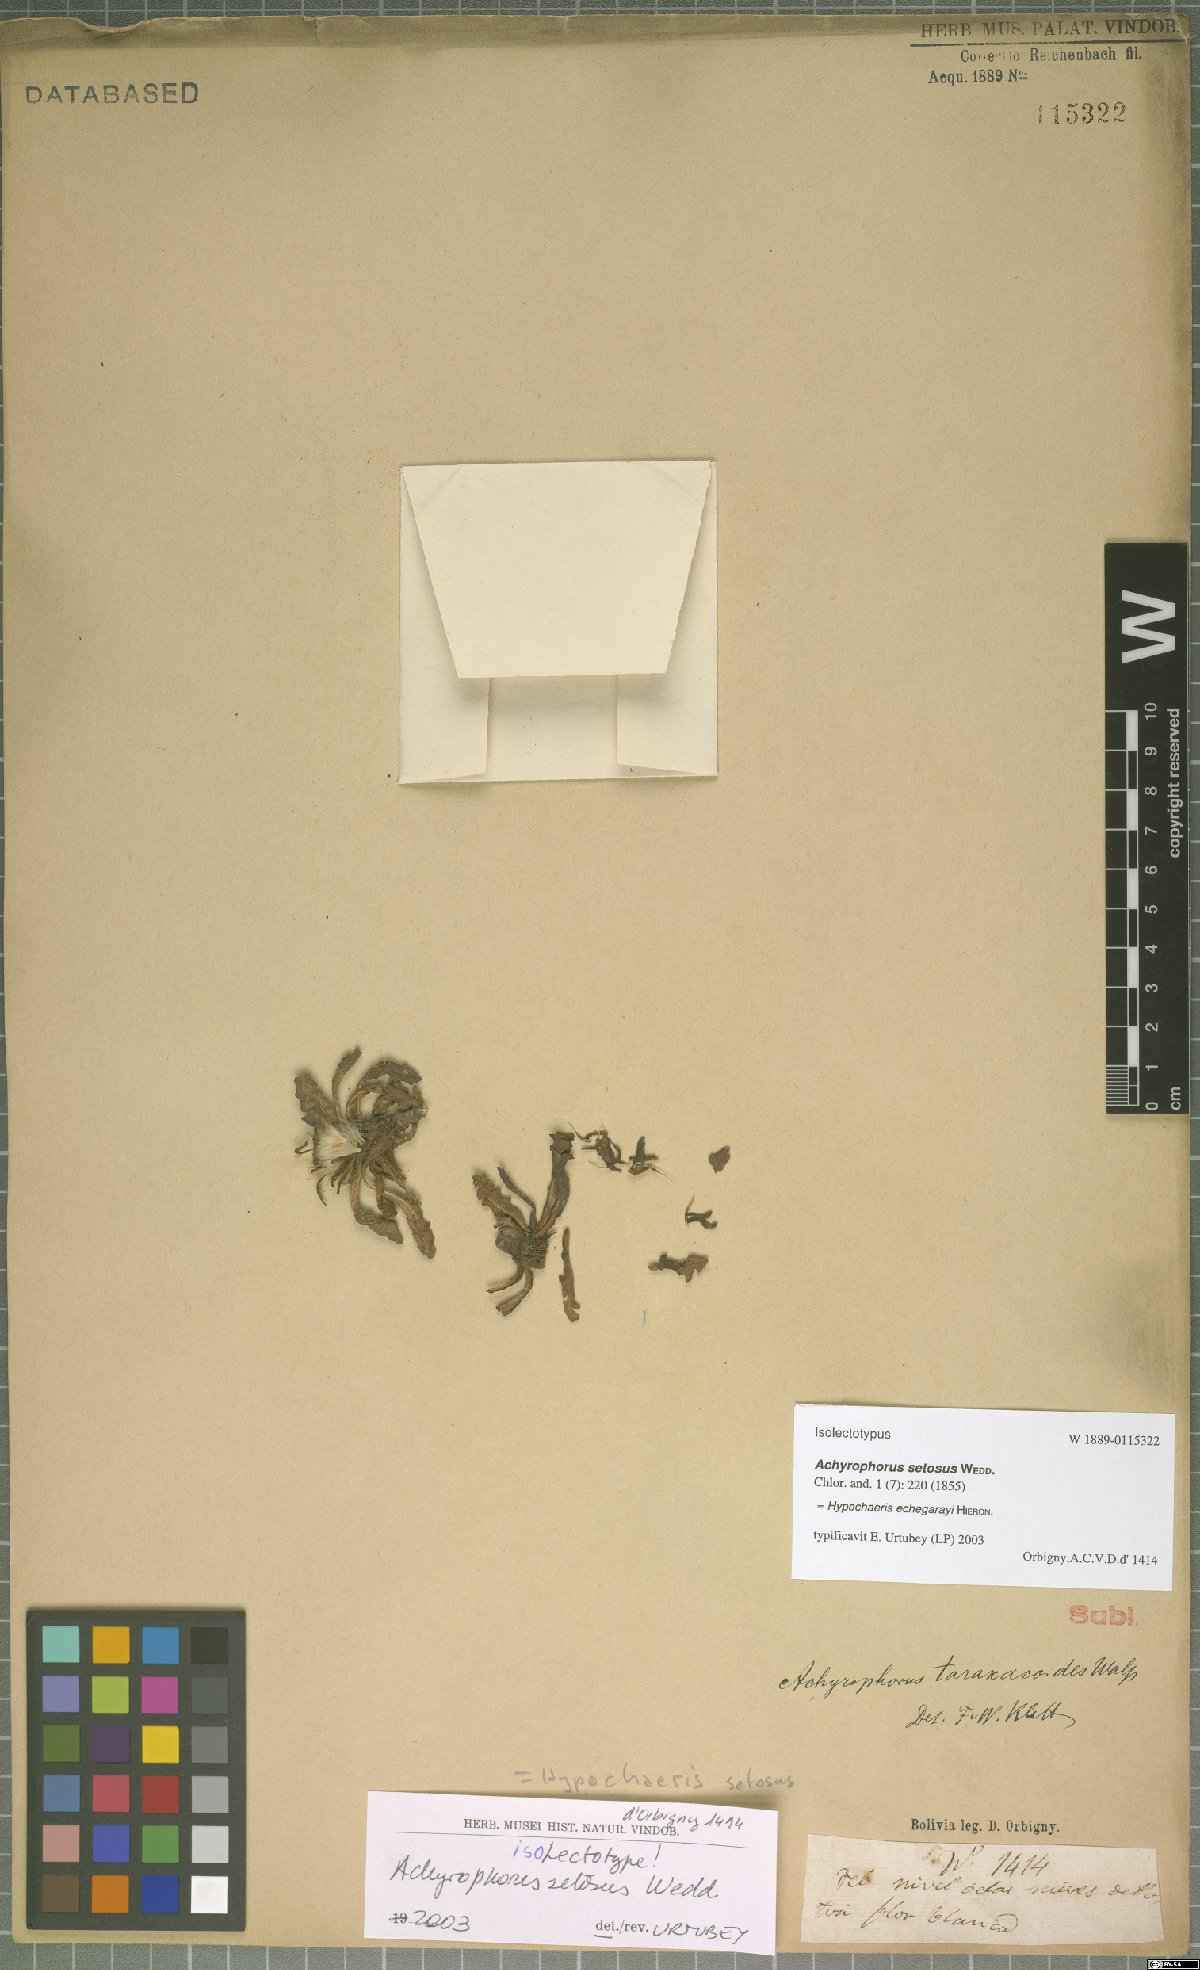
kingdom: Plantae
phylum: Tracheophyta
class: Magnoliopsida
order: Asterales
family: Asteraceae
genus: Hypochaeris
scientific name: Hypochaeris echegarayi
